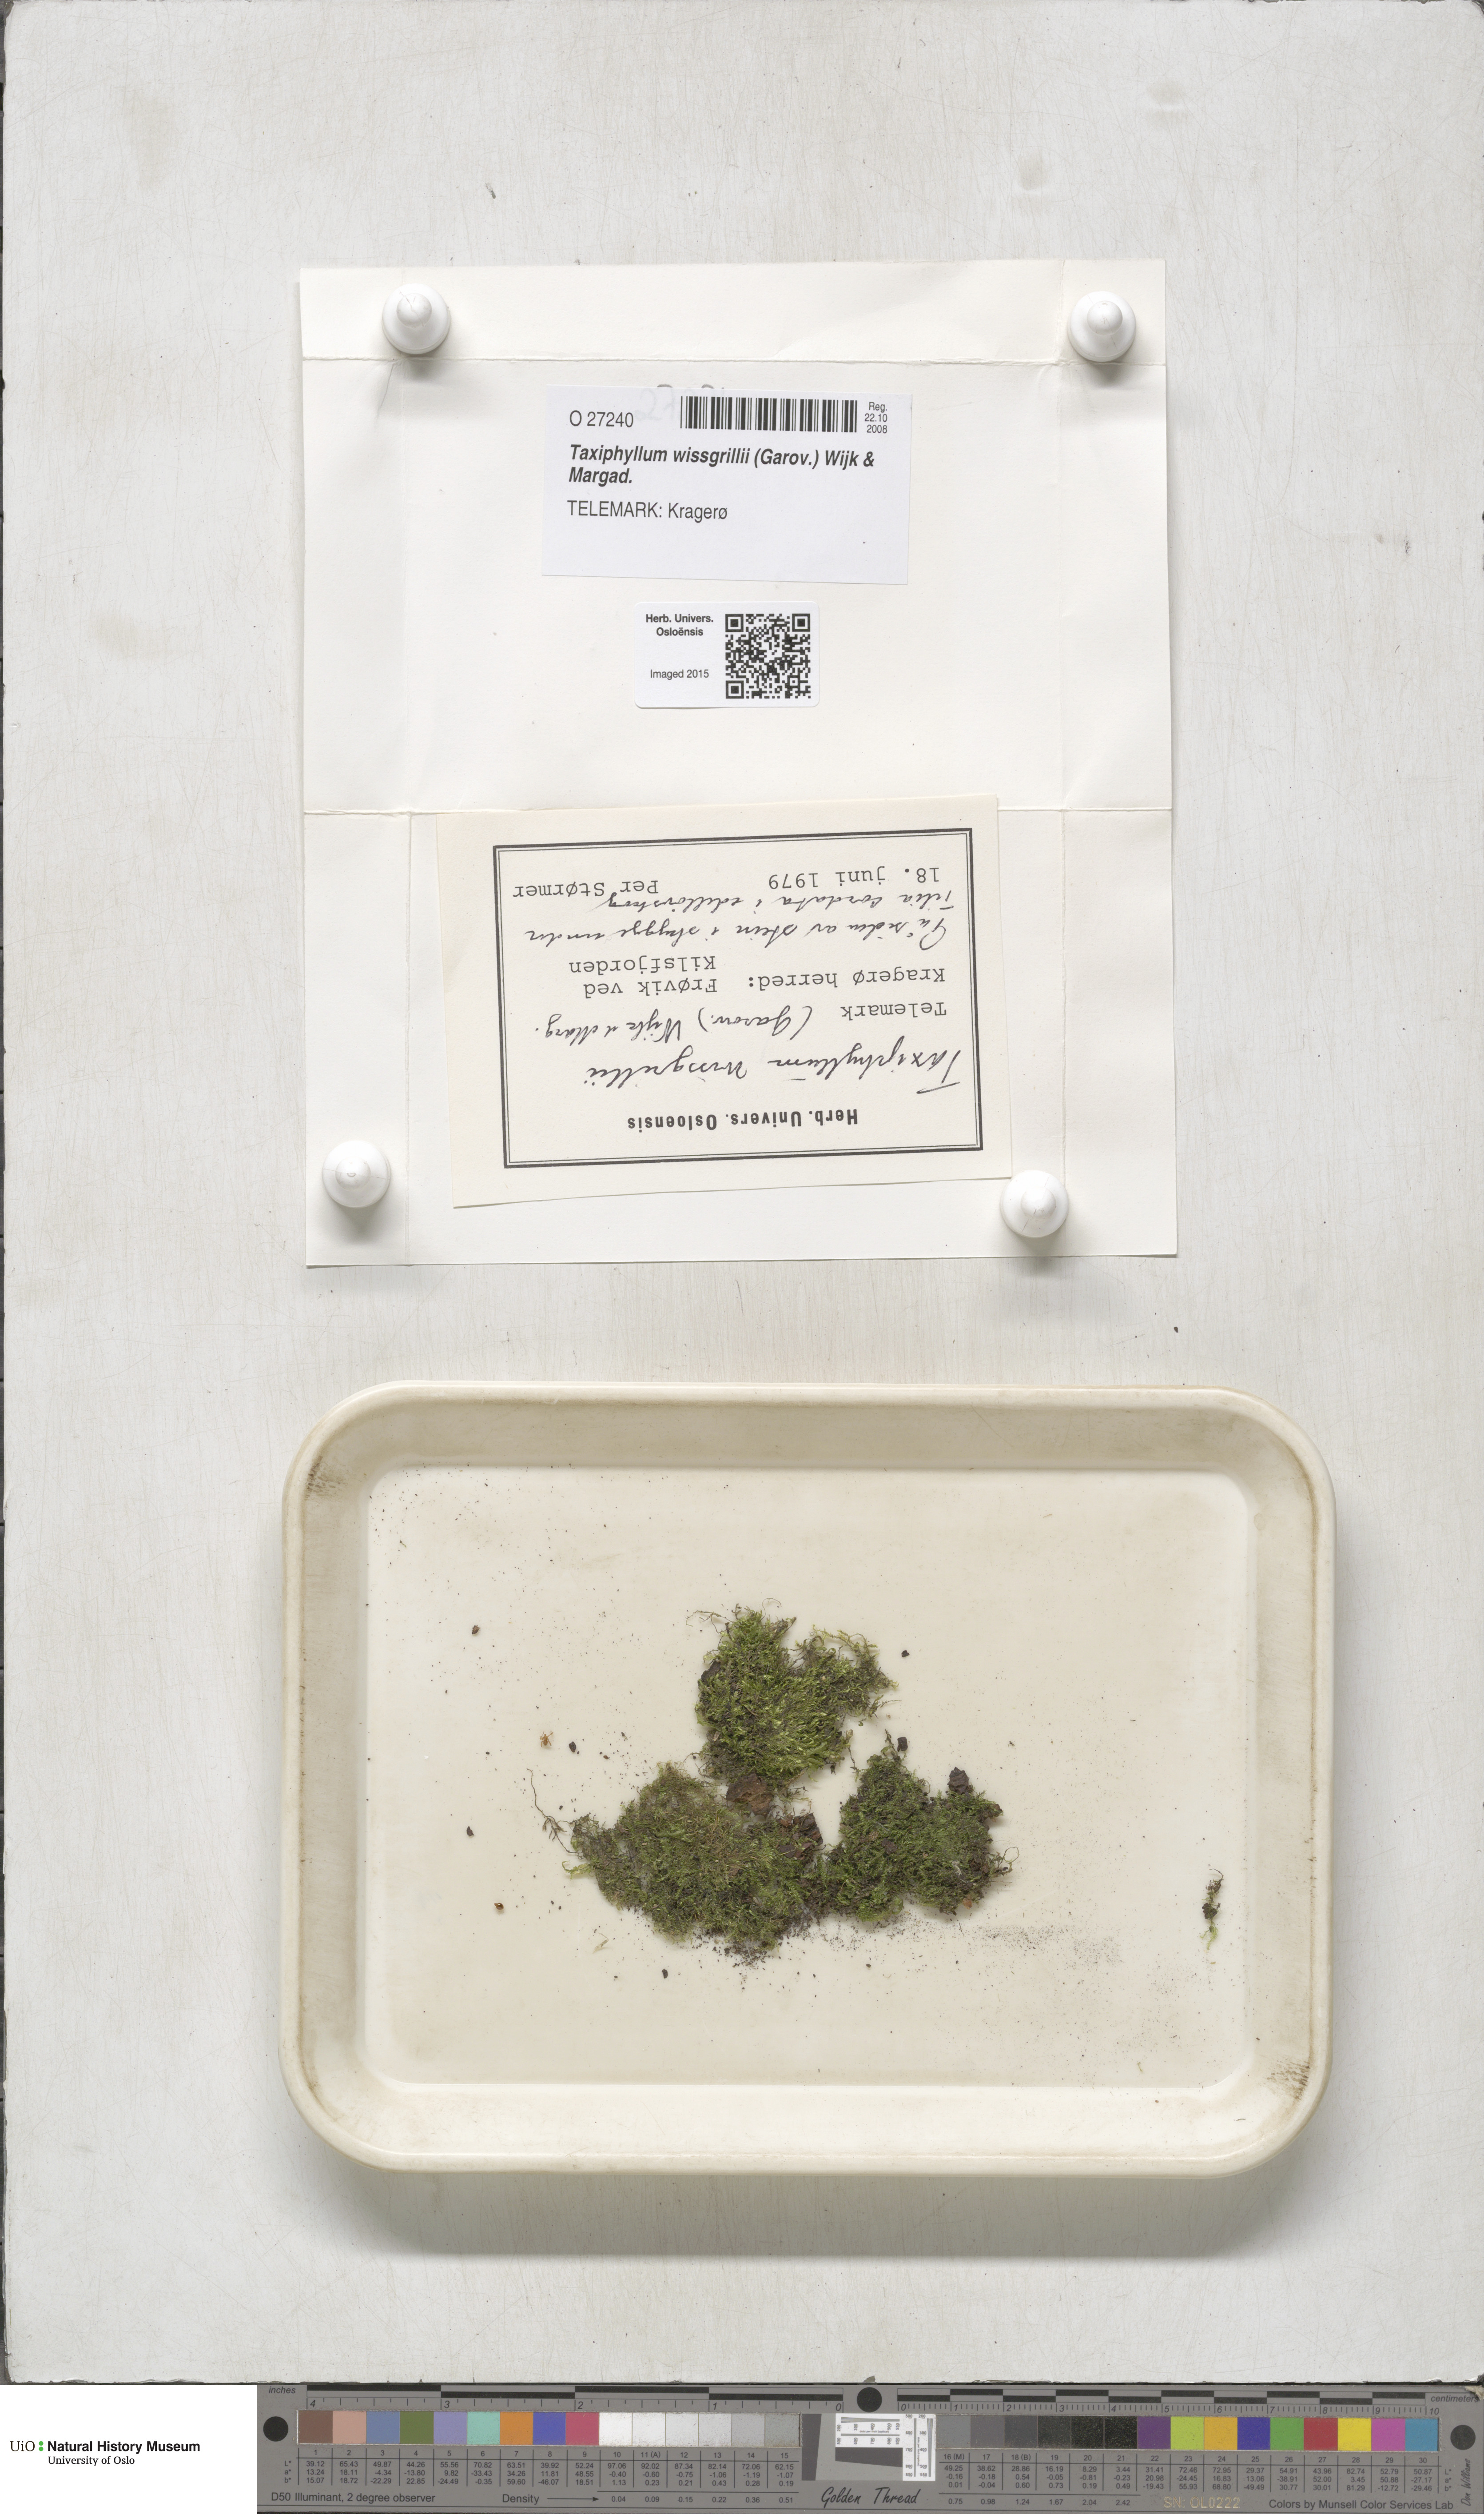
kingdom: Plantae
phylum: Bryophyta
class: Bryopsida
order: Hypnales
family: Taxiphyllaceae
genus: Taxiphyllum
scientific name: Taxiphyllum wissgrillii
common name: Depressed feather-moss
